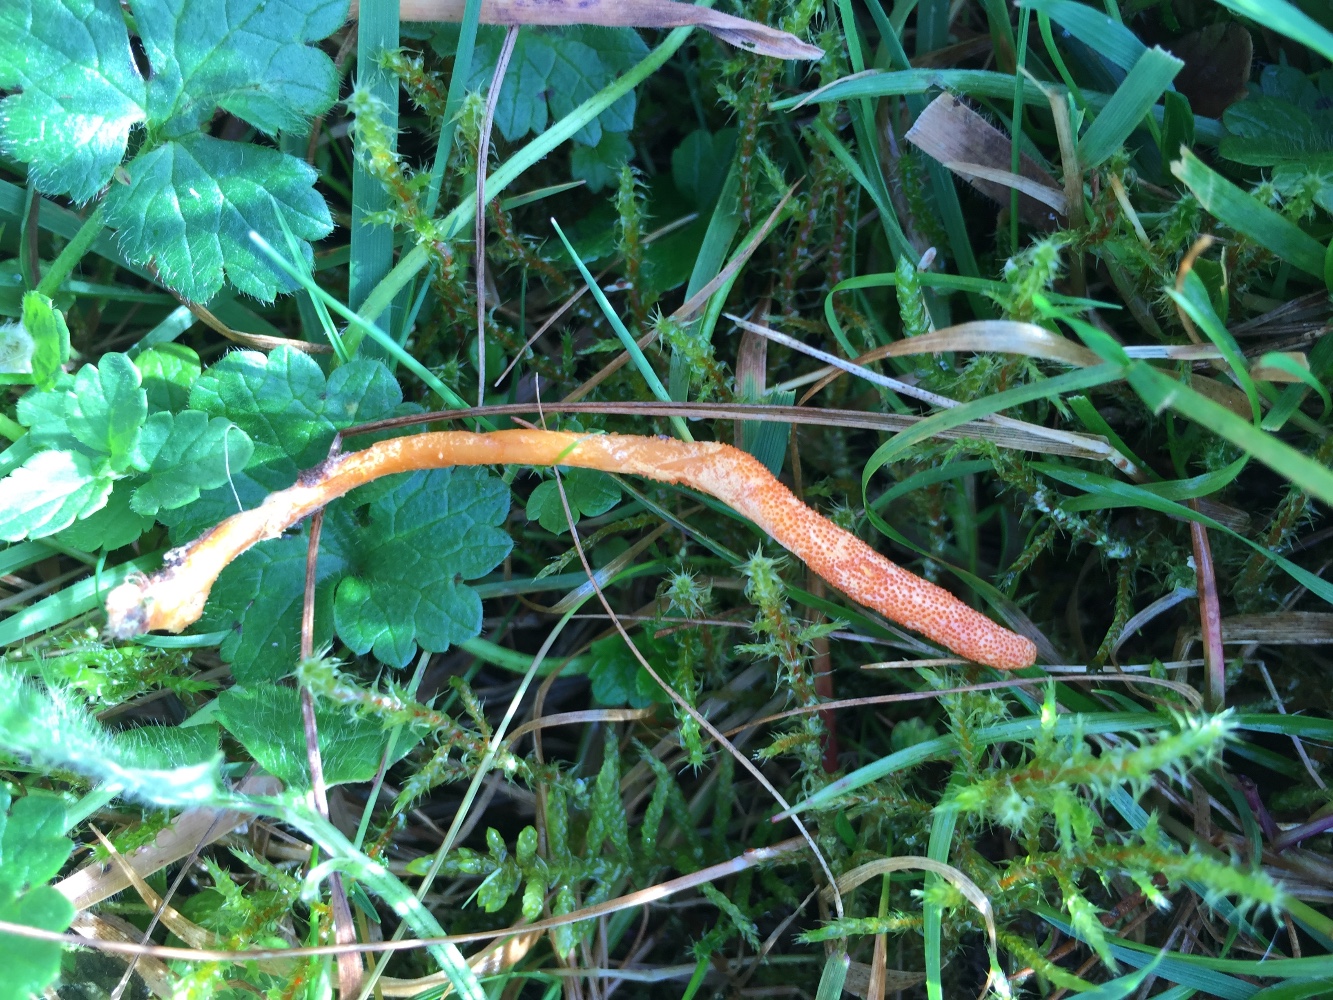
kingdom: Fungi
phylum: Ascomycota
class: Sordariomycetes
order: Hypocreales
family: Cordycipitaceae
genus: Cordyceps
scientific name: Cordyceps militaris
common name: puppe-snyltekølle
